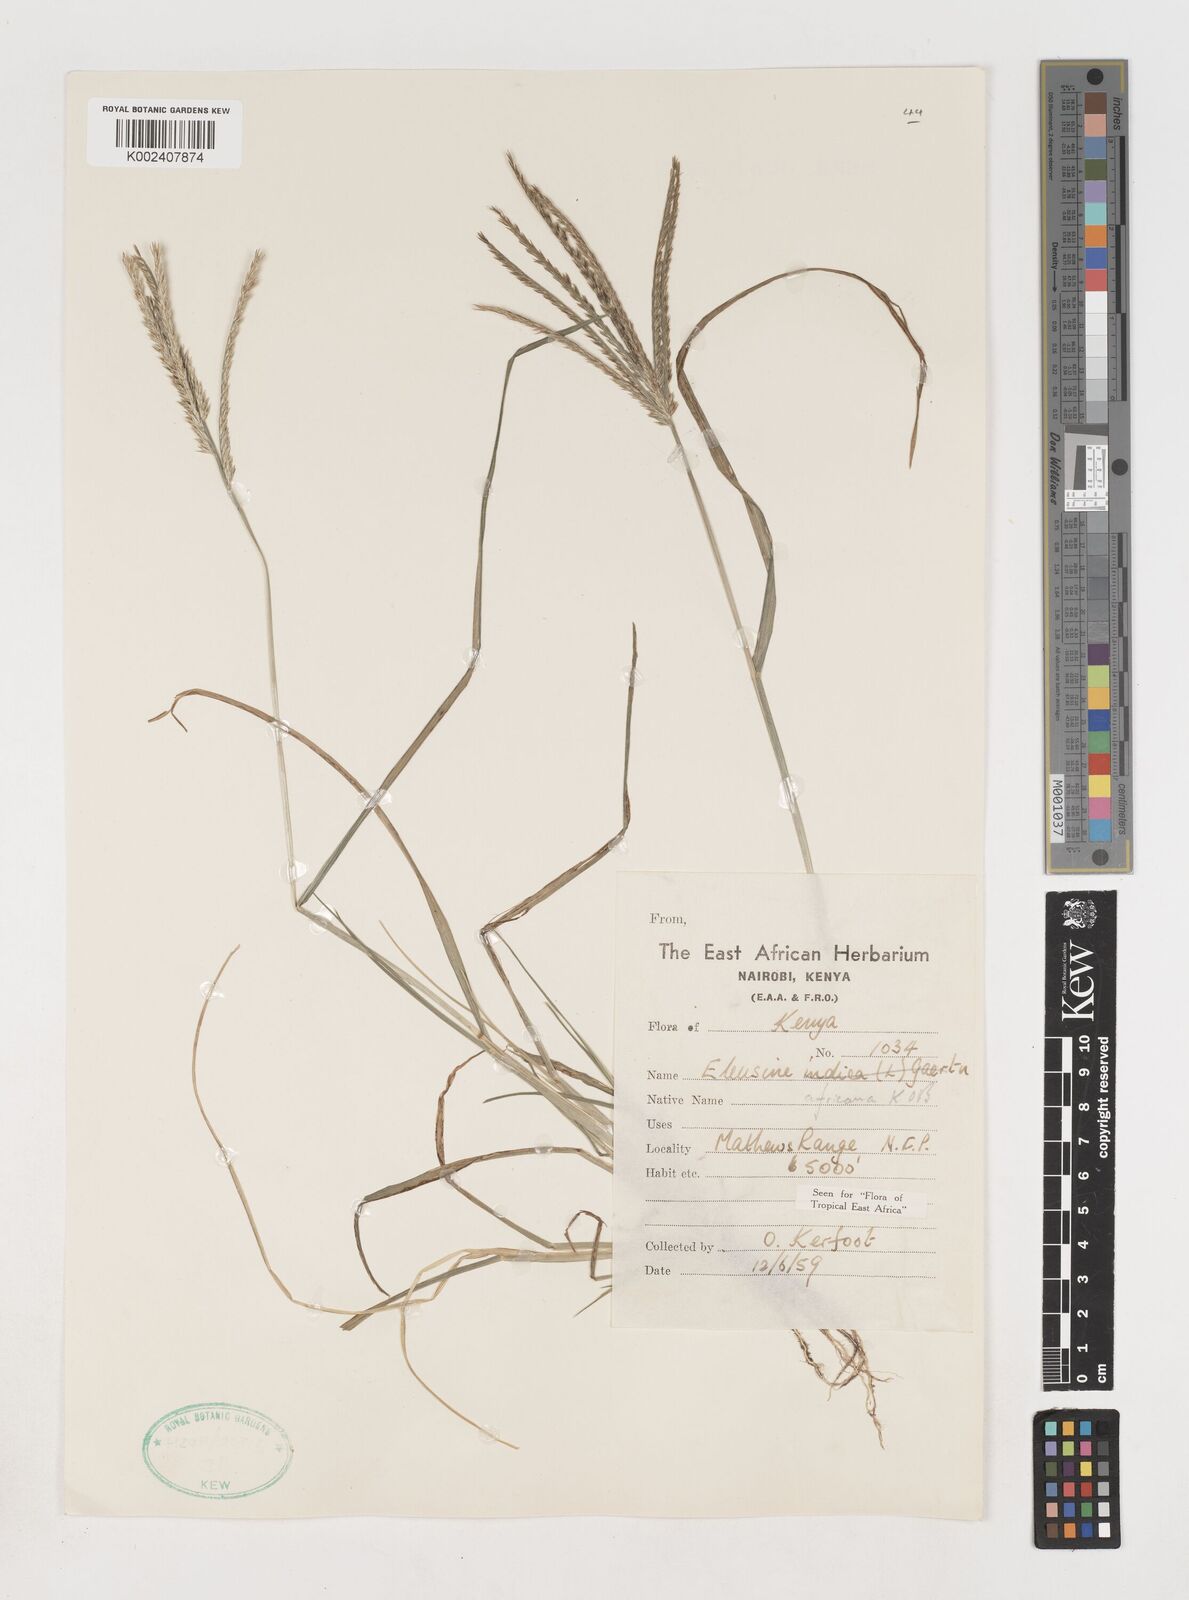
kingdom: Plantae
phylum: Tracheophyta
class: Liliopsida
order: Poales
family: Poaceae
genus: Eleusine
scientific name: Eleusine africana
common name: Wild african finger millet
